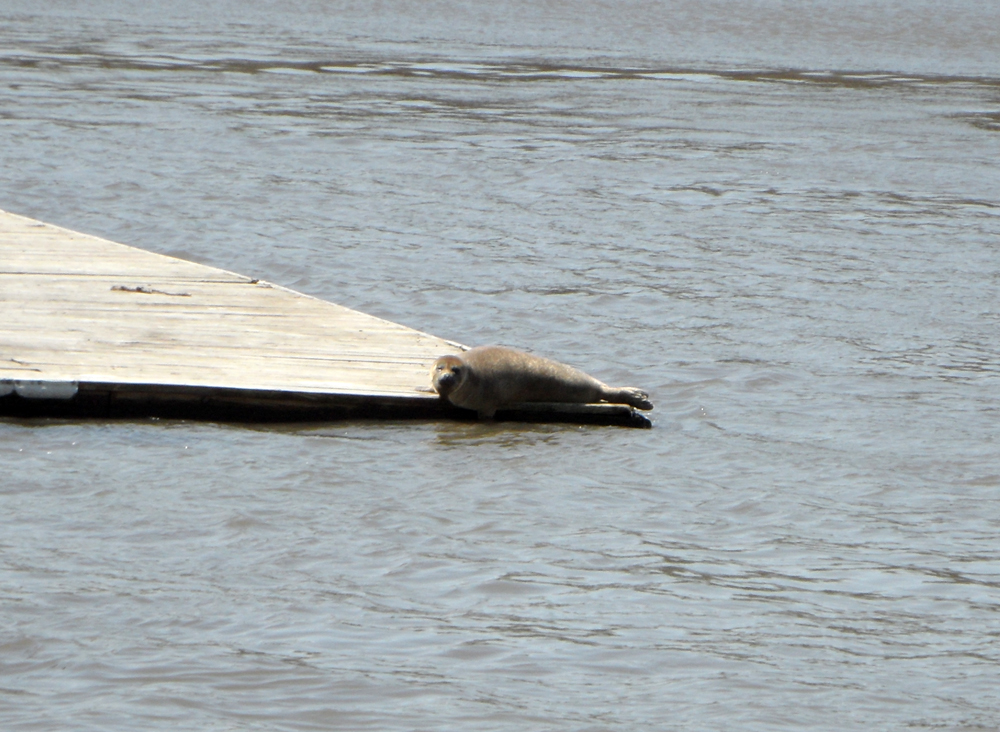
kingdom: Animalia
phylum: Chordata
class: Mammalia
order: Carnivora
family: Phocidae
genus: Phoca
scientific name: Phoca vitulina
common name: Harbor seal
